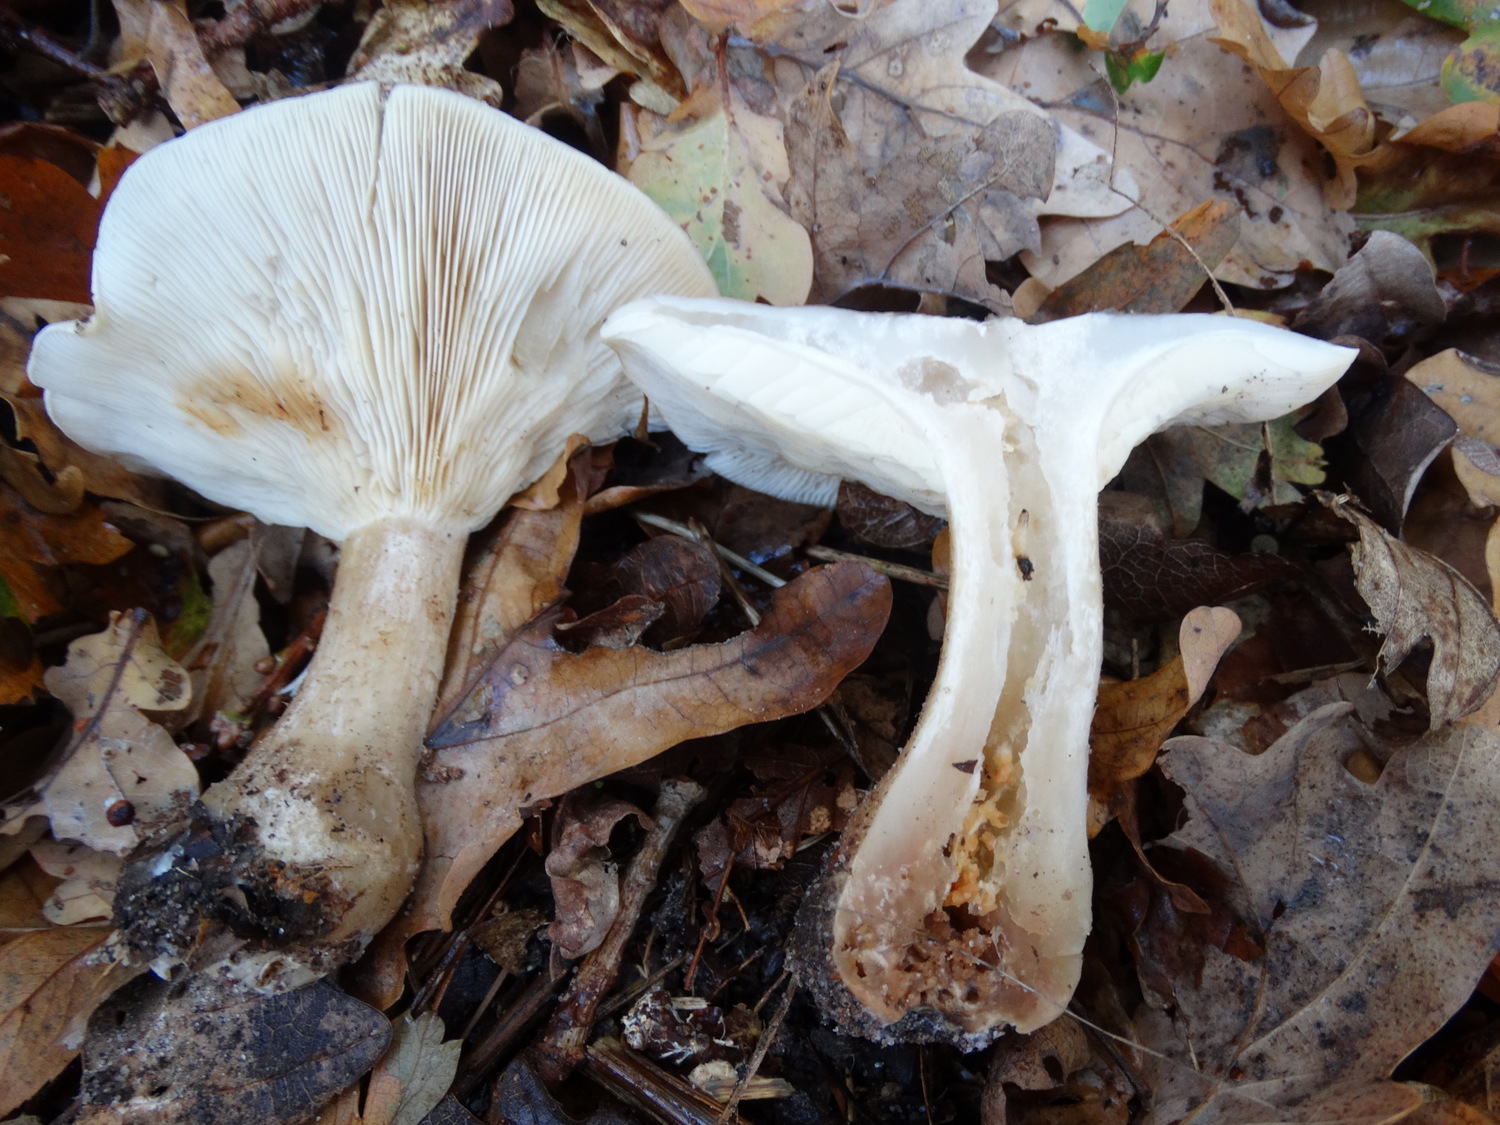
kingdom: Fungi
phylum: Basidiomycota
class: Agaricomycetes
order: Agaricales
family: Tricholomataceae
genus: Clitocybe
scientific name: Clitocybe nebularis
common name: tåge-tragthat
